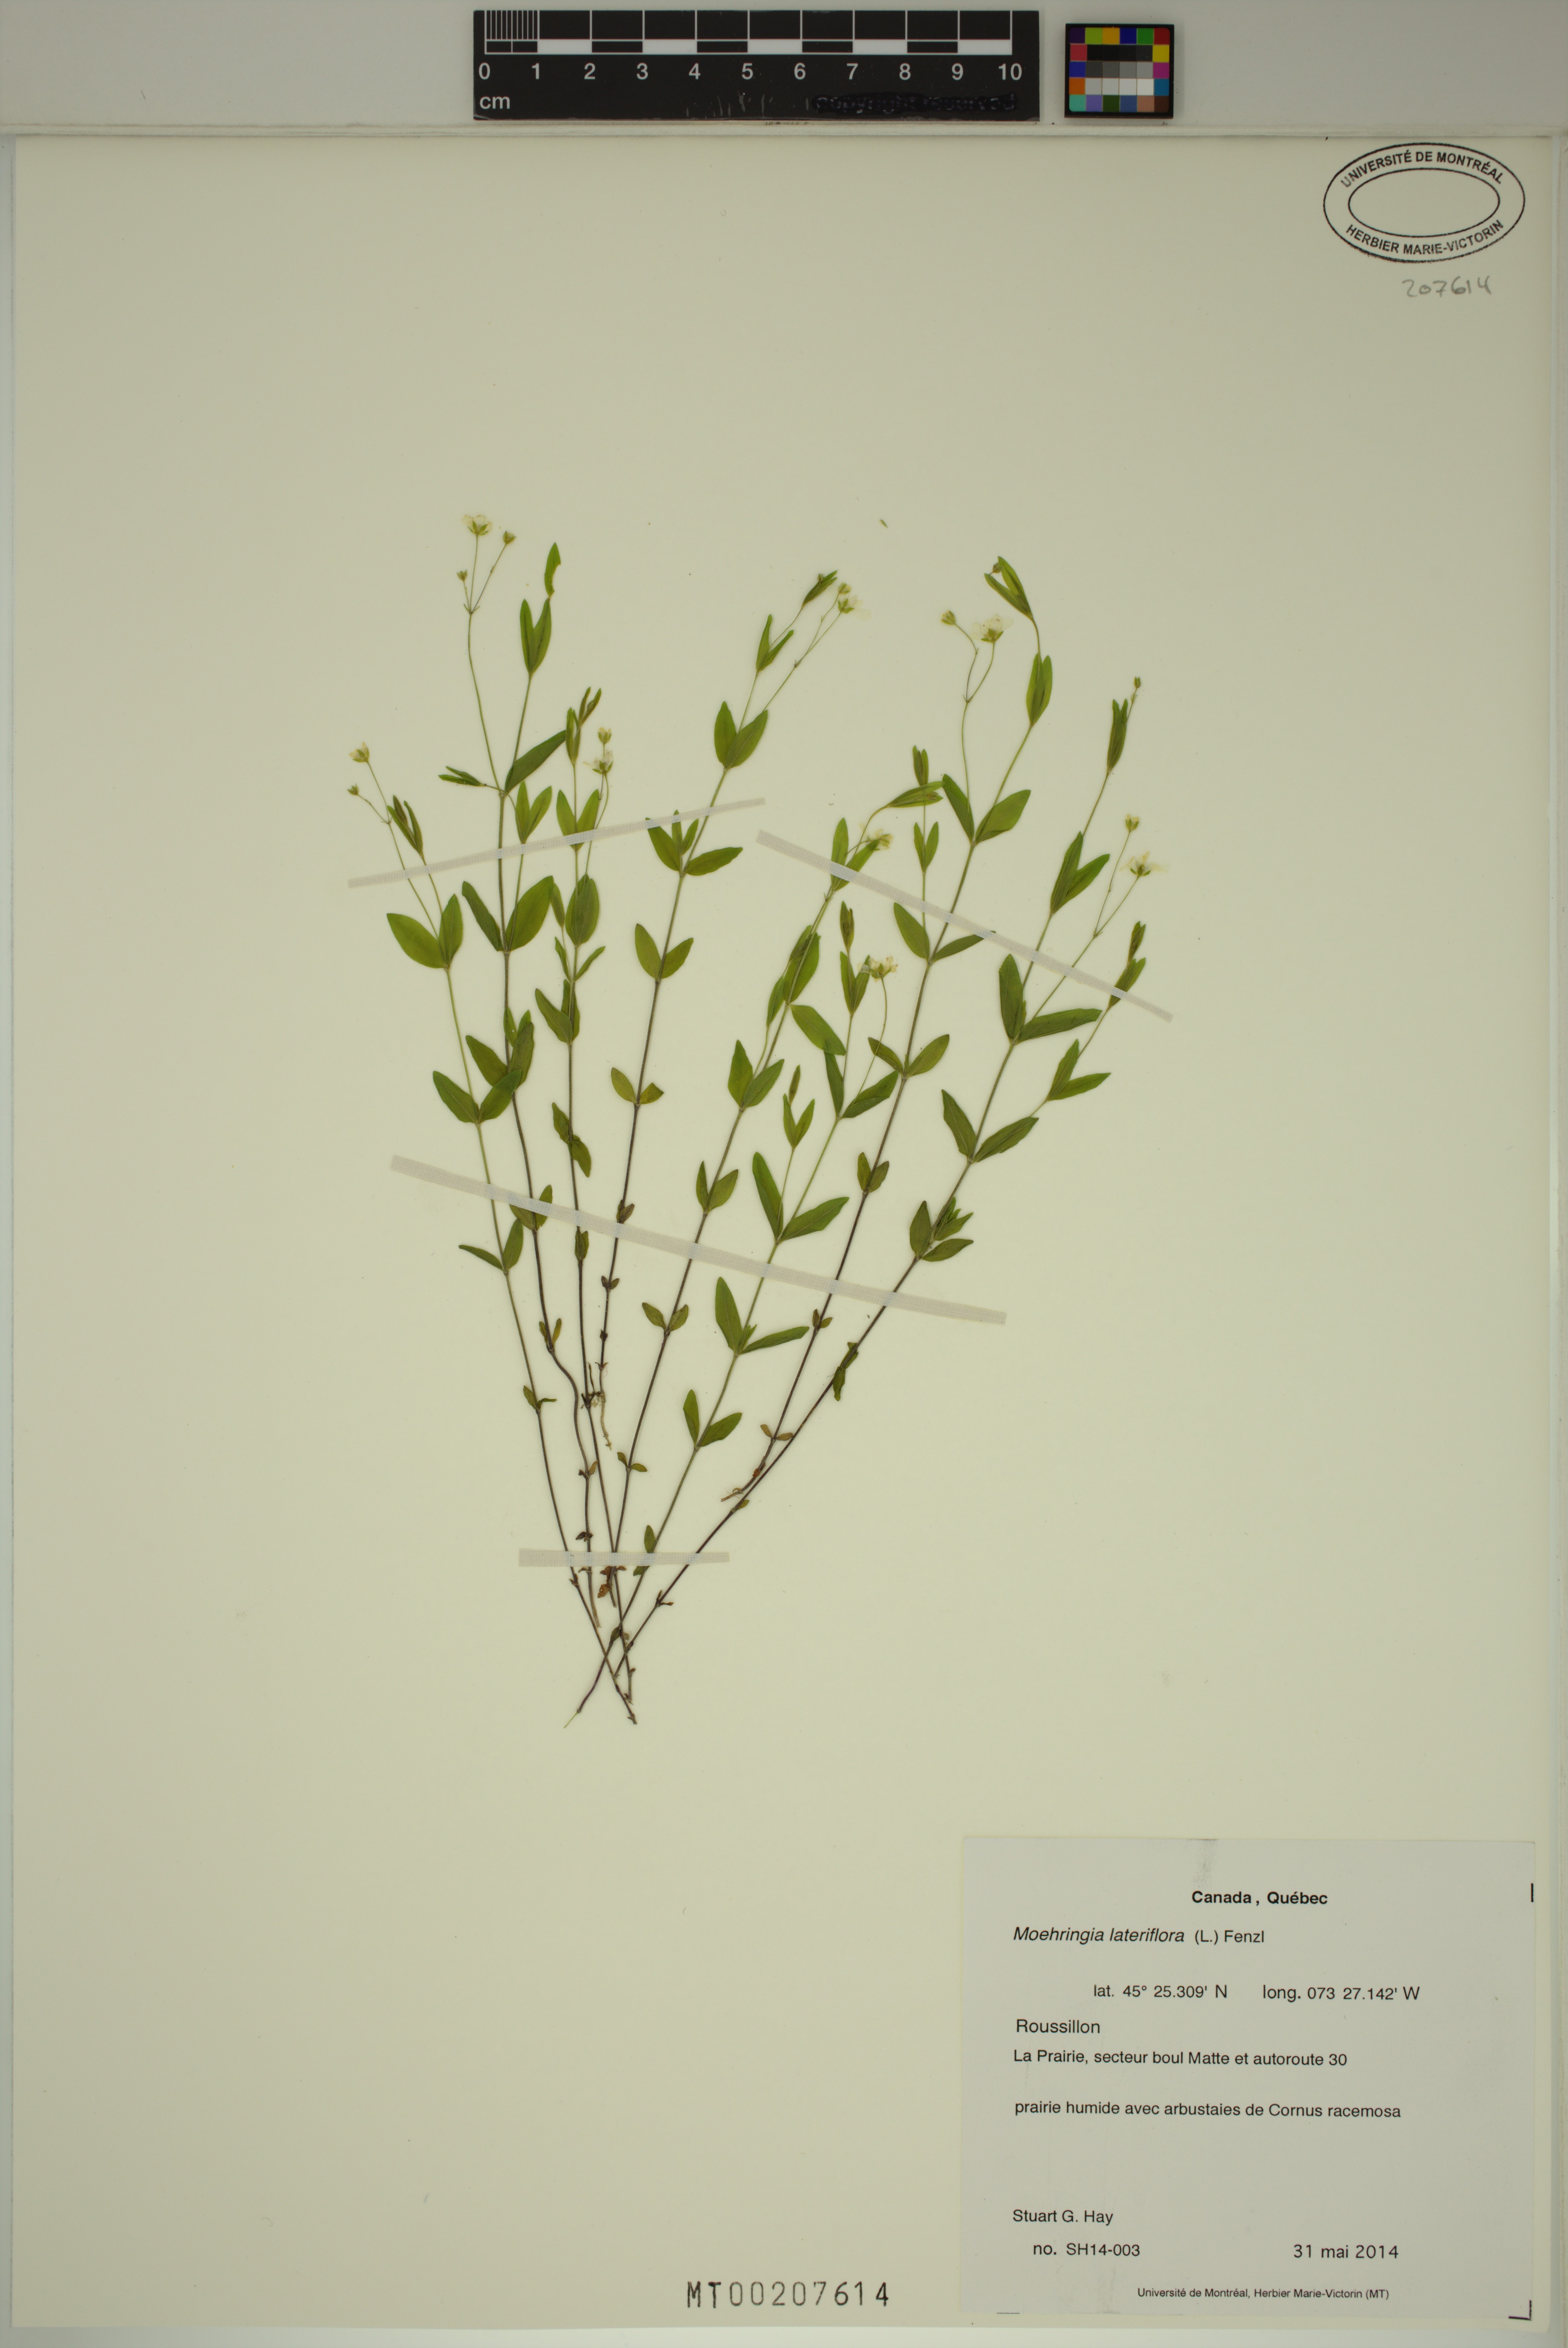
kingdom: Plantae
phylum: Tracheophyta
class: Magnoliopsida
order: Caryophyllales
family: Caryophyllaceae
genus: Moehringia
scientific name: Moehringia lateriflora
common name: Blunt-leaved sandwort
